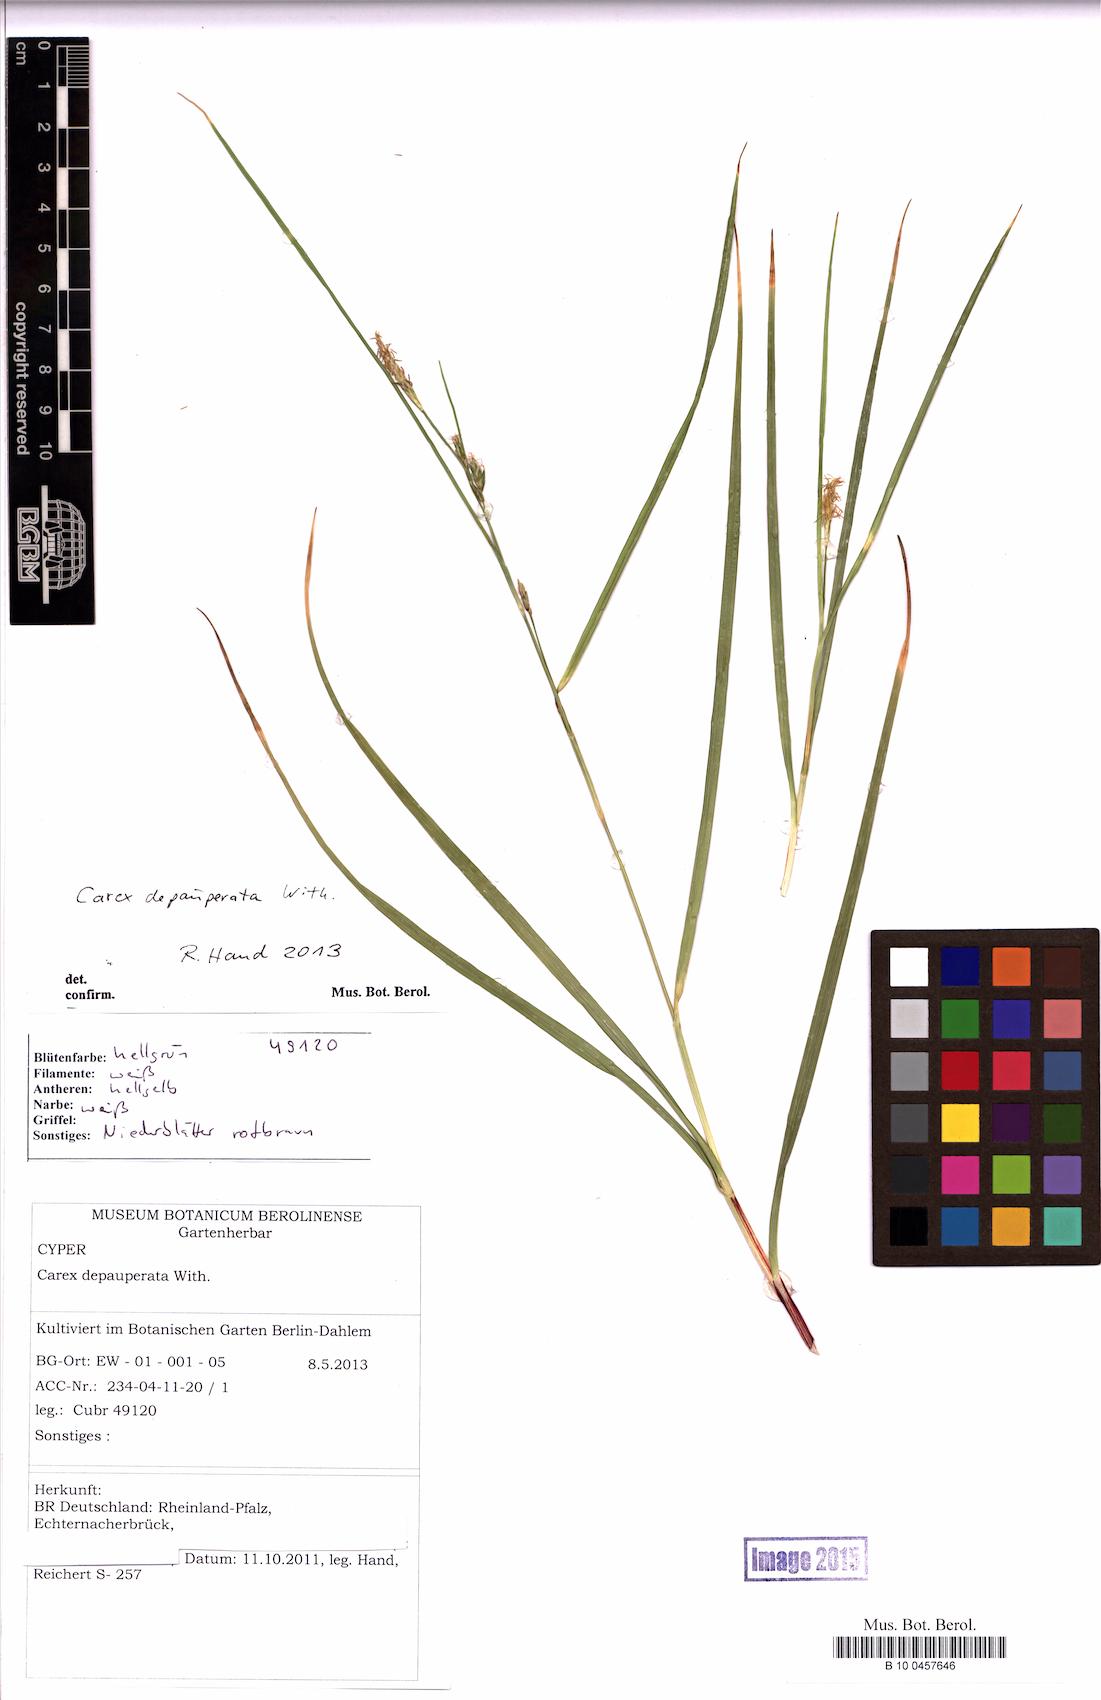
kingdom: Plantae
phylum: Tracheophyta
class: Liliopsida
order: Poales
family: Cyperaceae
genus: Carex
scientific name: Carex depauperata
